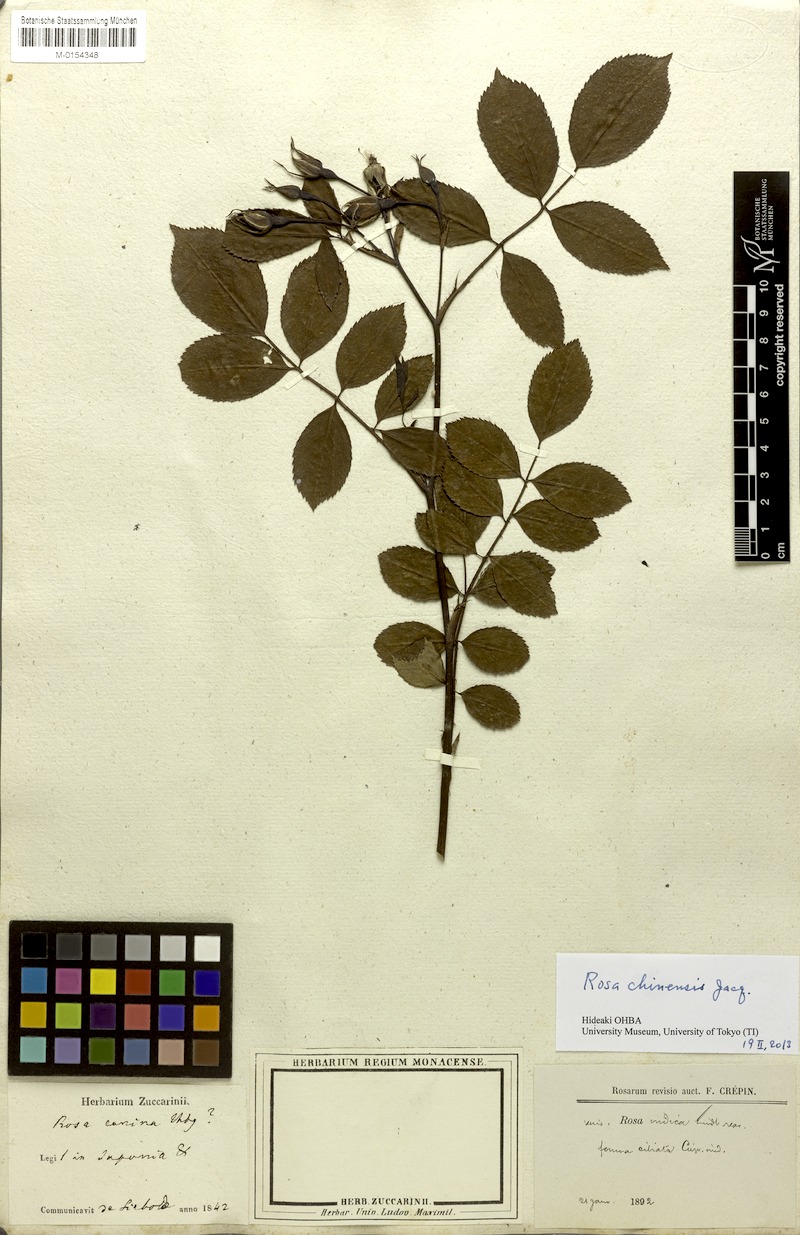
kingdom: Plantae
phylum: Tracheophyta
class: Magnoliopsida
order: Rosales
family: Rosaceae
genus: Rosa
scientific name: Rosa chinensis
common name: China rose
